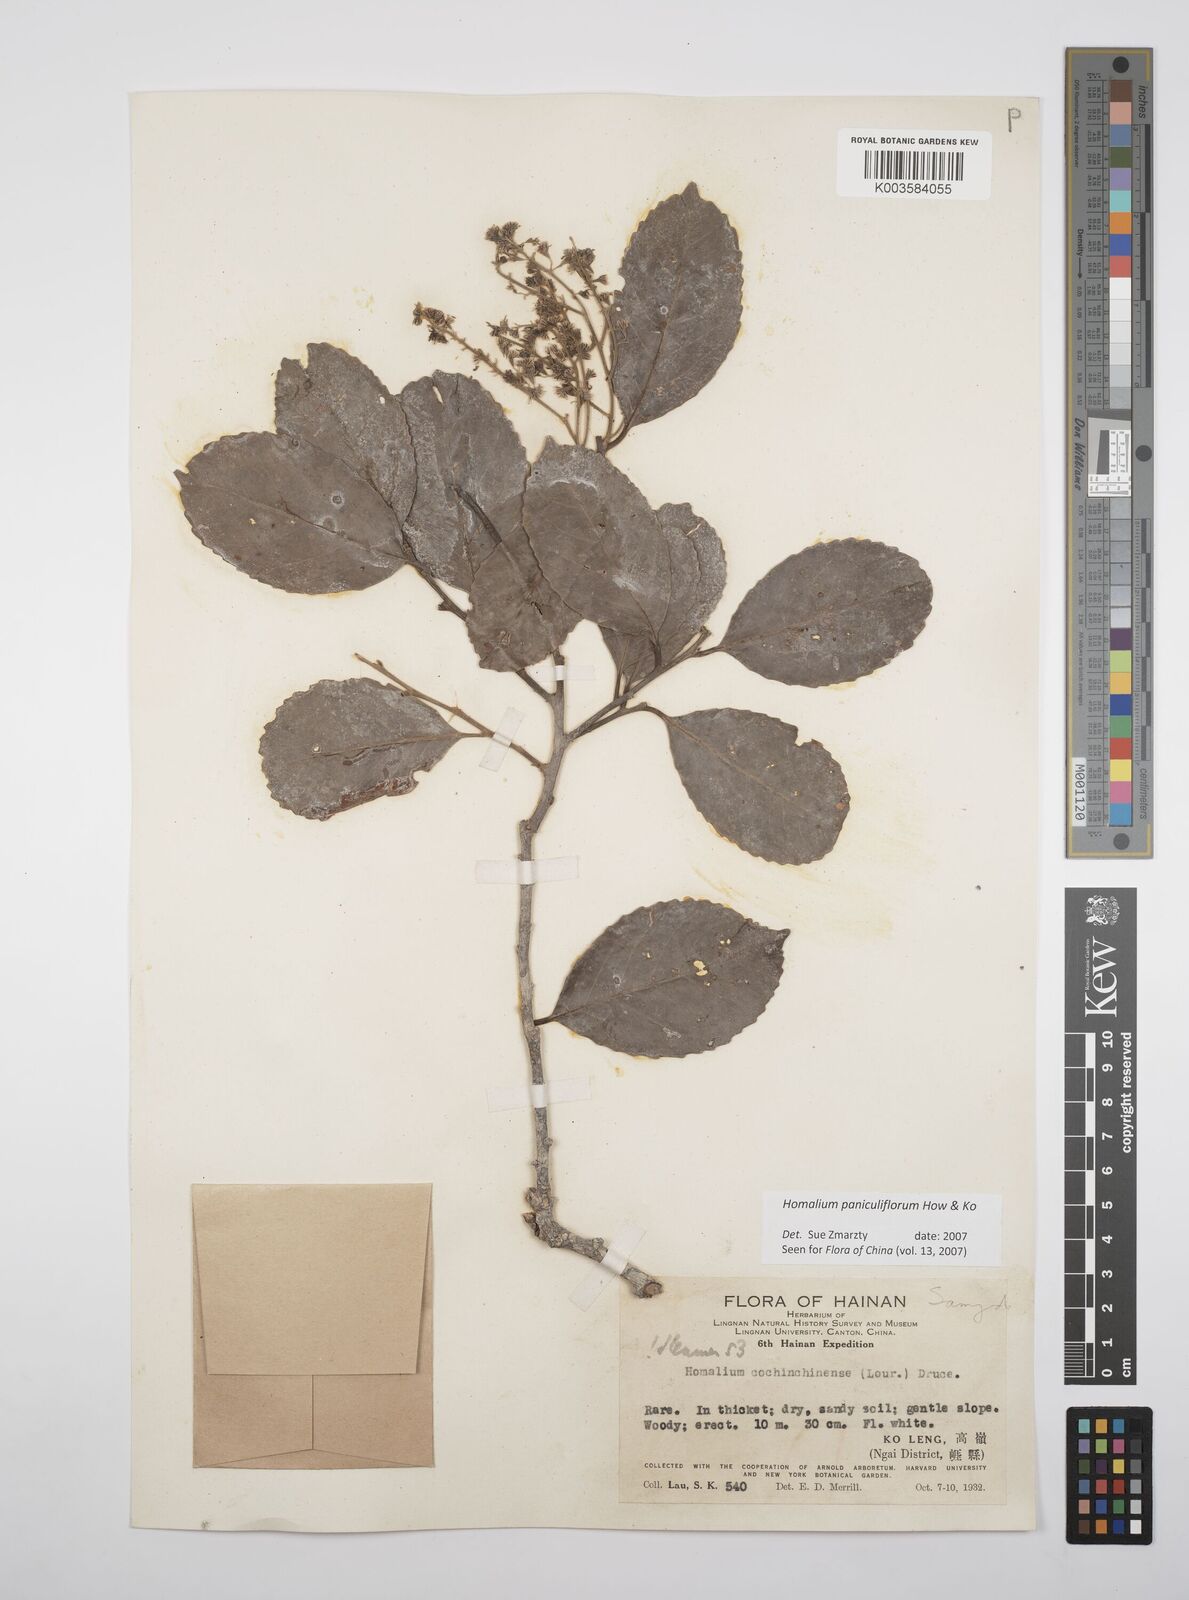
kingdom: Plantae
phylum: Tracheophyta
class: Magnoliopsida
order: Malpighiales
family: Salicaceae
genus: Homalium
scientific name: Homalium paniculiflorum
